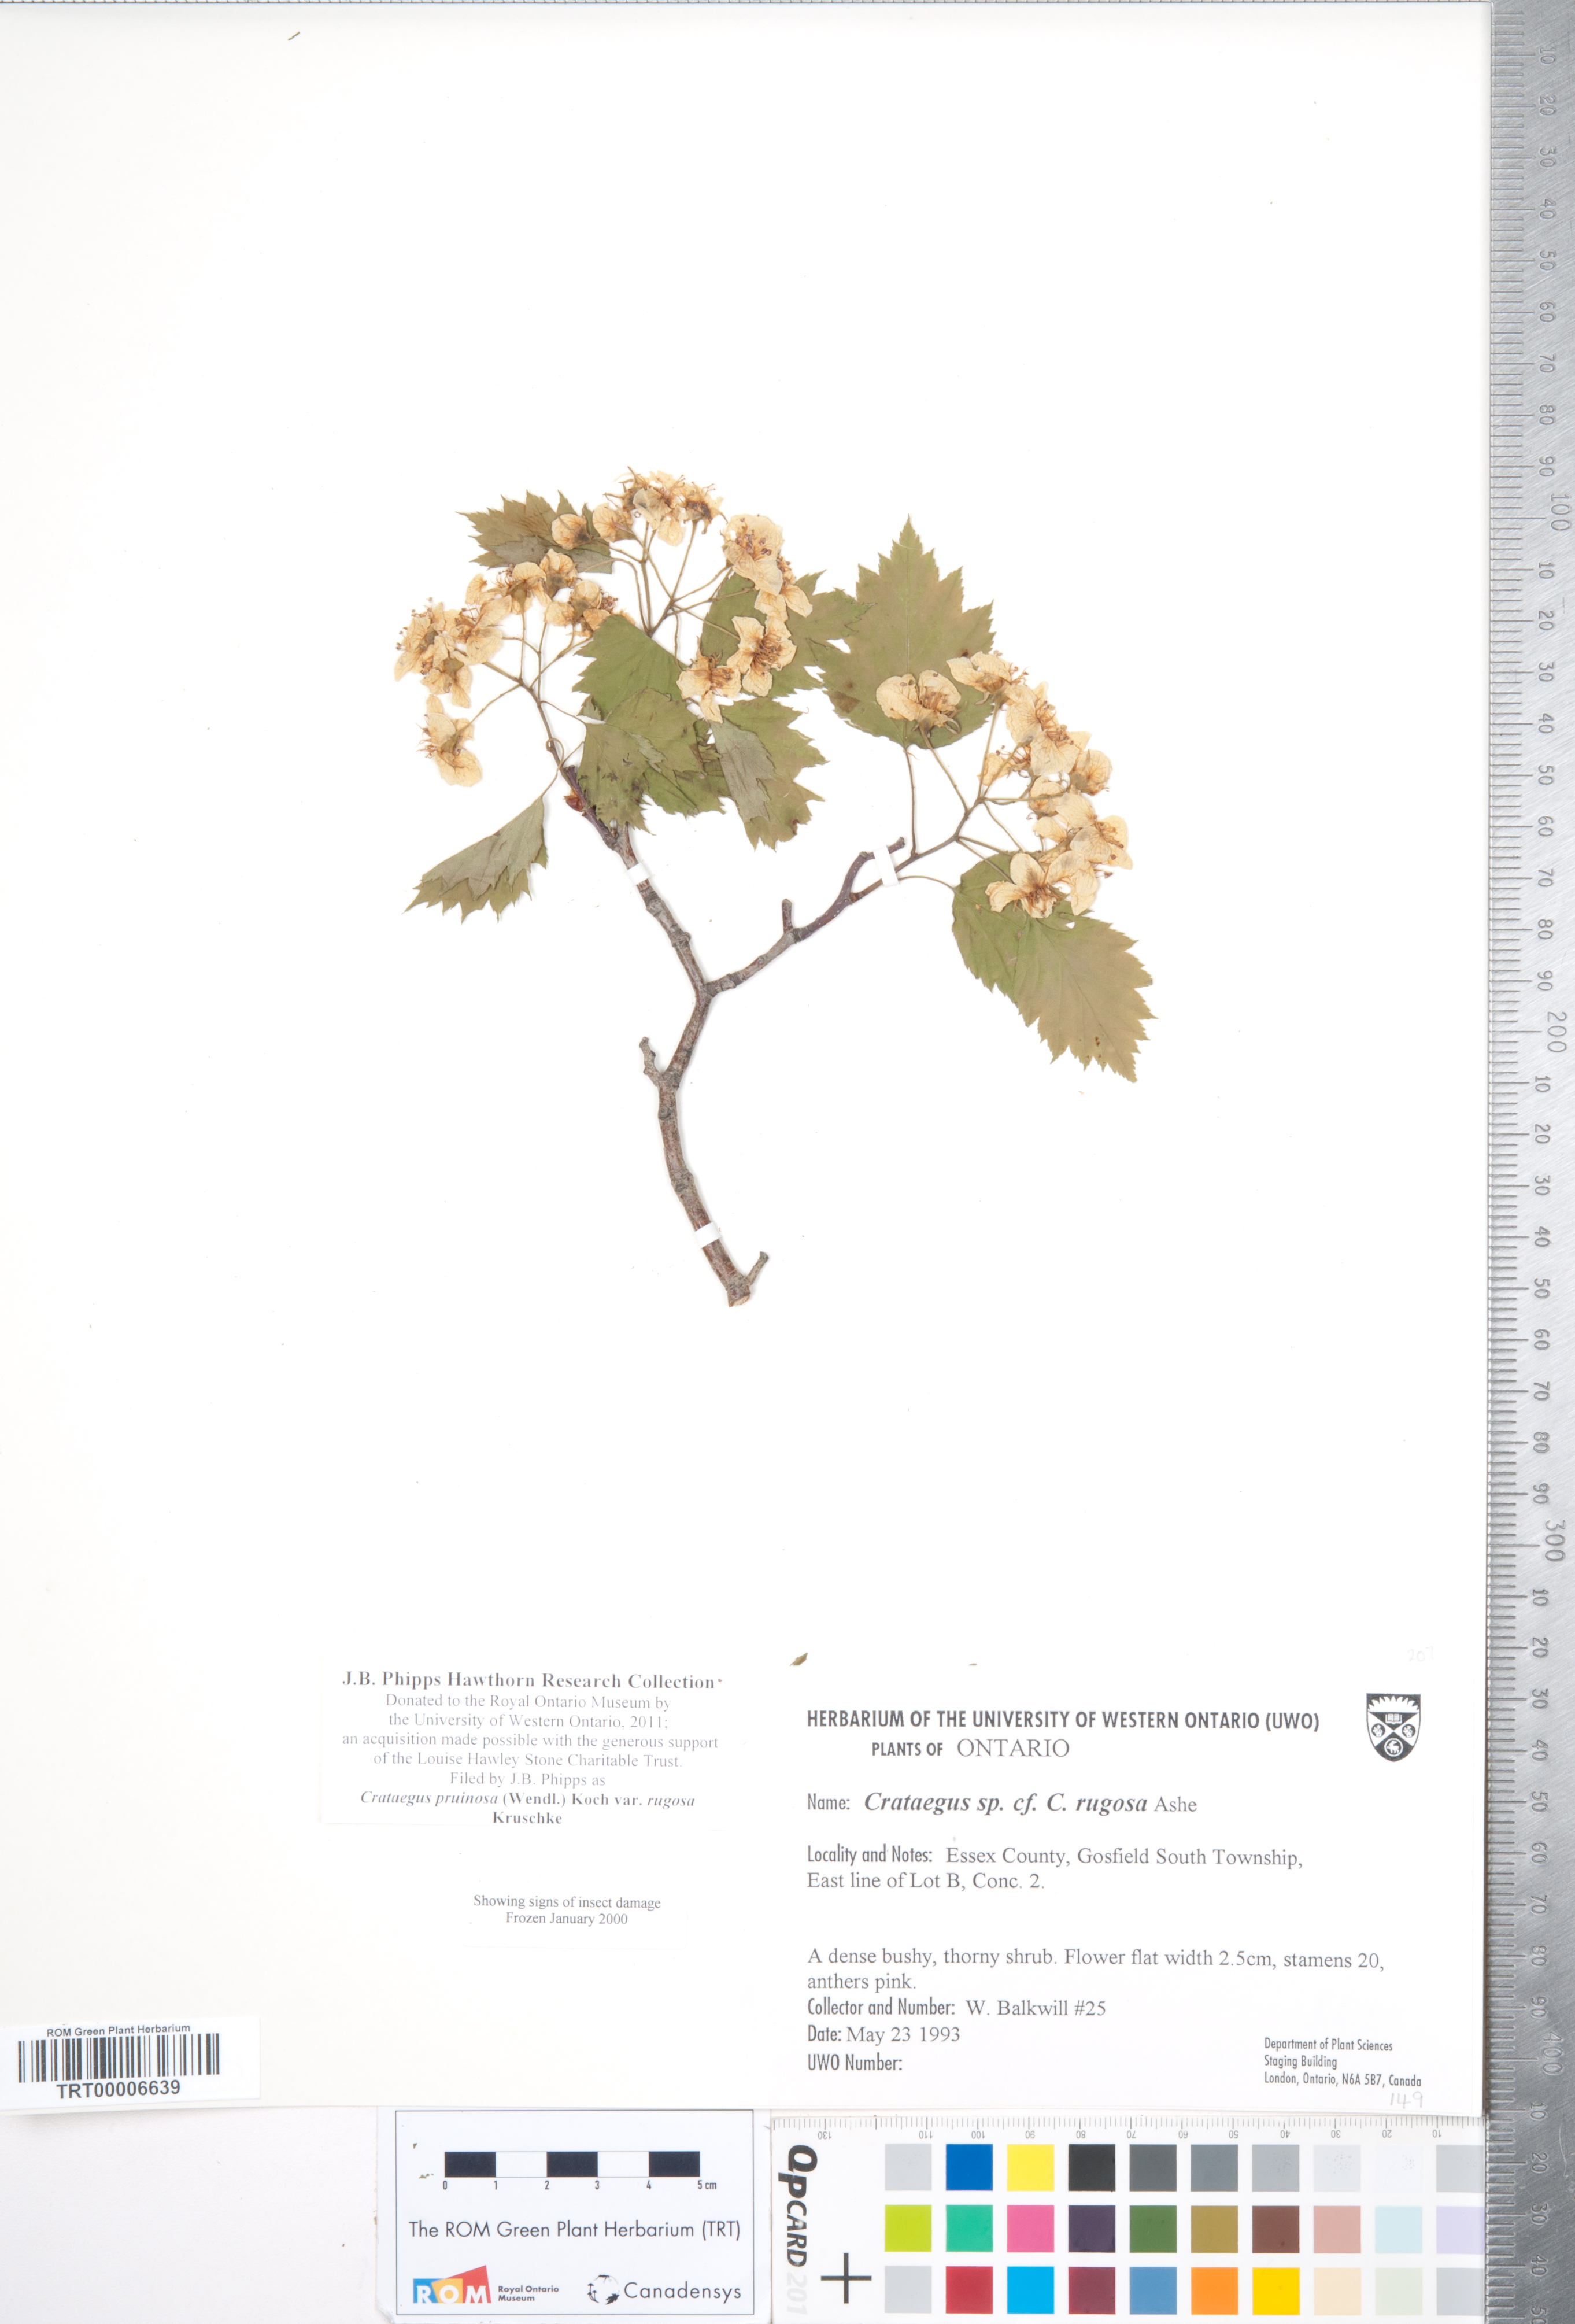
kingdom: Plantae
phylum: Tracheophyta
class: Magnoliopsida
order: Rosales
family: Rosaceae
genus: Crataegus
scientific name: Crataegus pruinosa
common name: Waxy-fruit hawthorn
